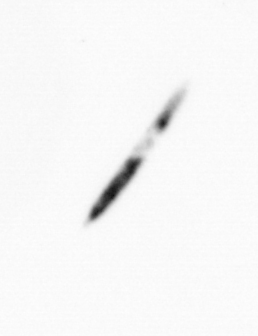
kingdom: Bacteria
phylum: Cyanobacteria
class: Cyanobacteriia
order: Cyanobacteriales
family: Microcoleaceae
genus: Trichodesmium
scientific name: Trichodesmium
